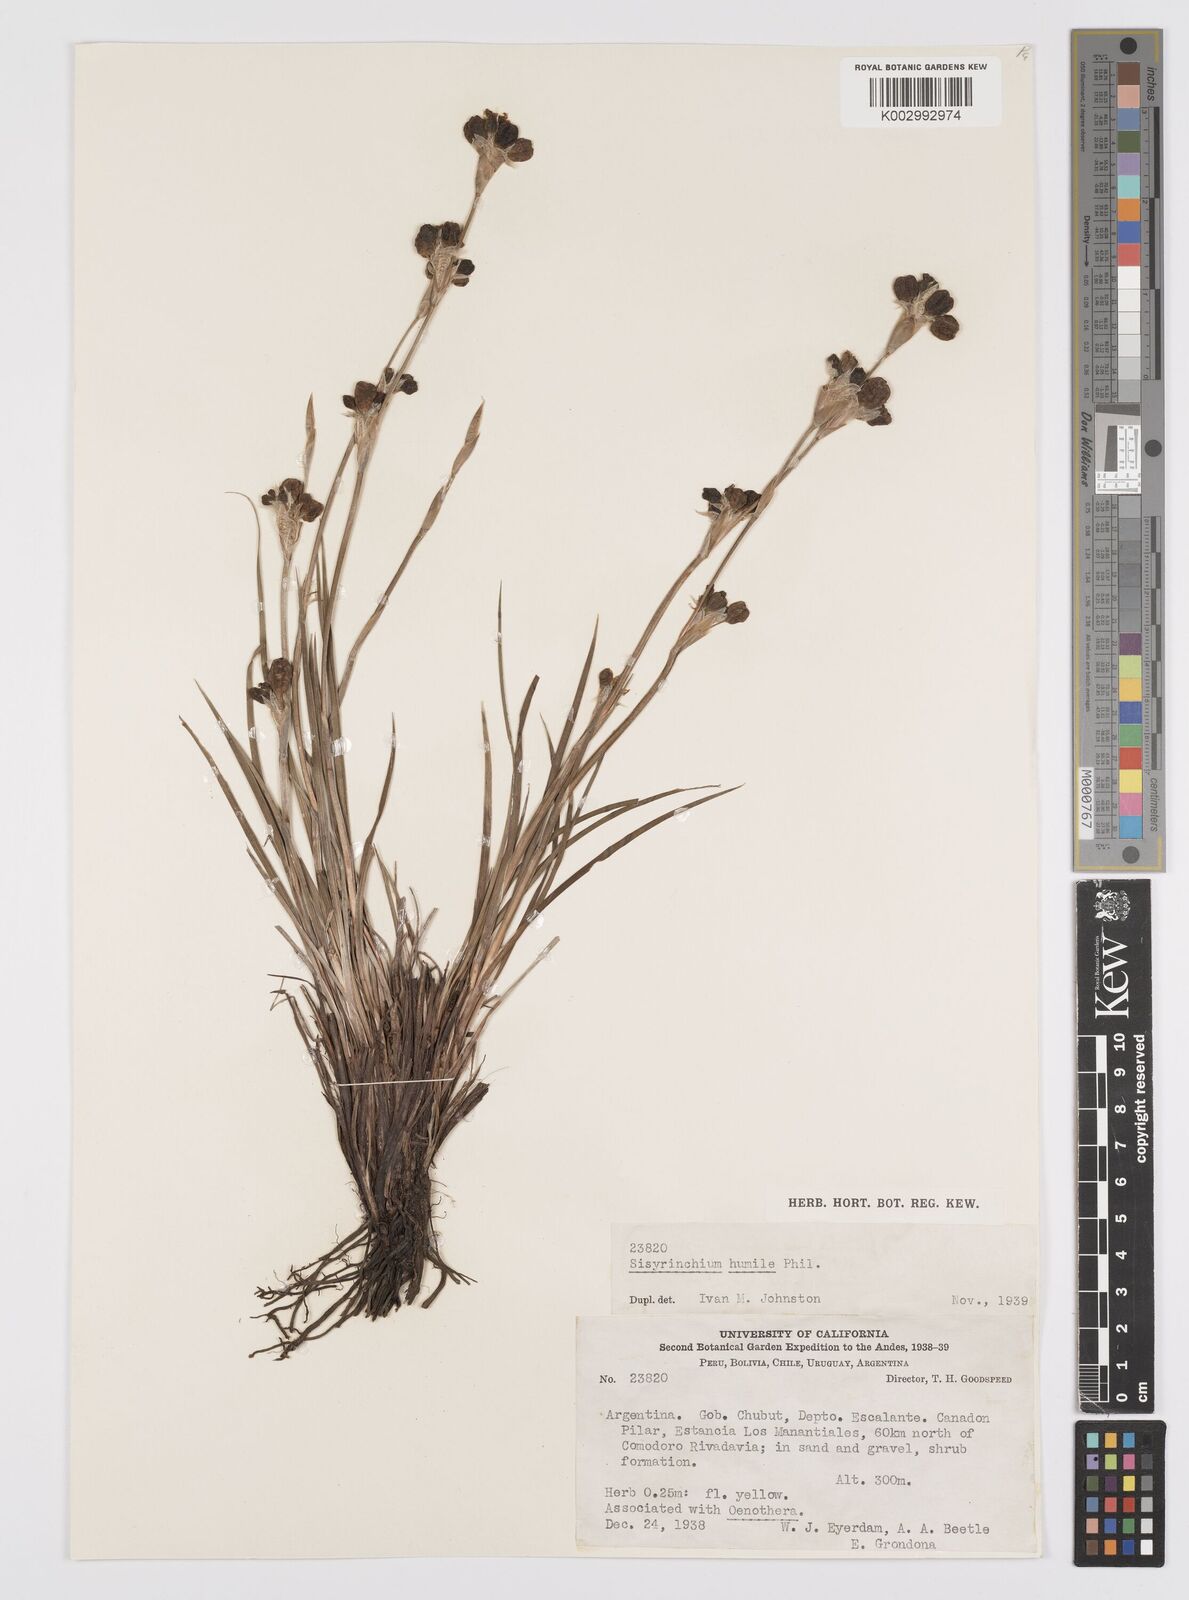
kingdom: Plantae
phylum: Tracheophyta
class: Liliopsida
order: Asparagales
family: Iridaceae
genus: Sisyrinchium
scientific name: Sisyrinchium arenarium
